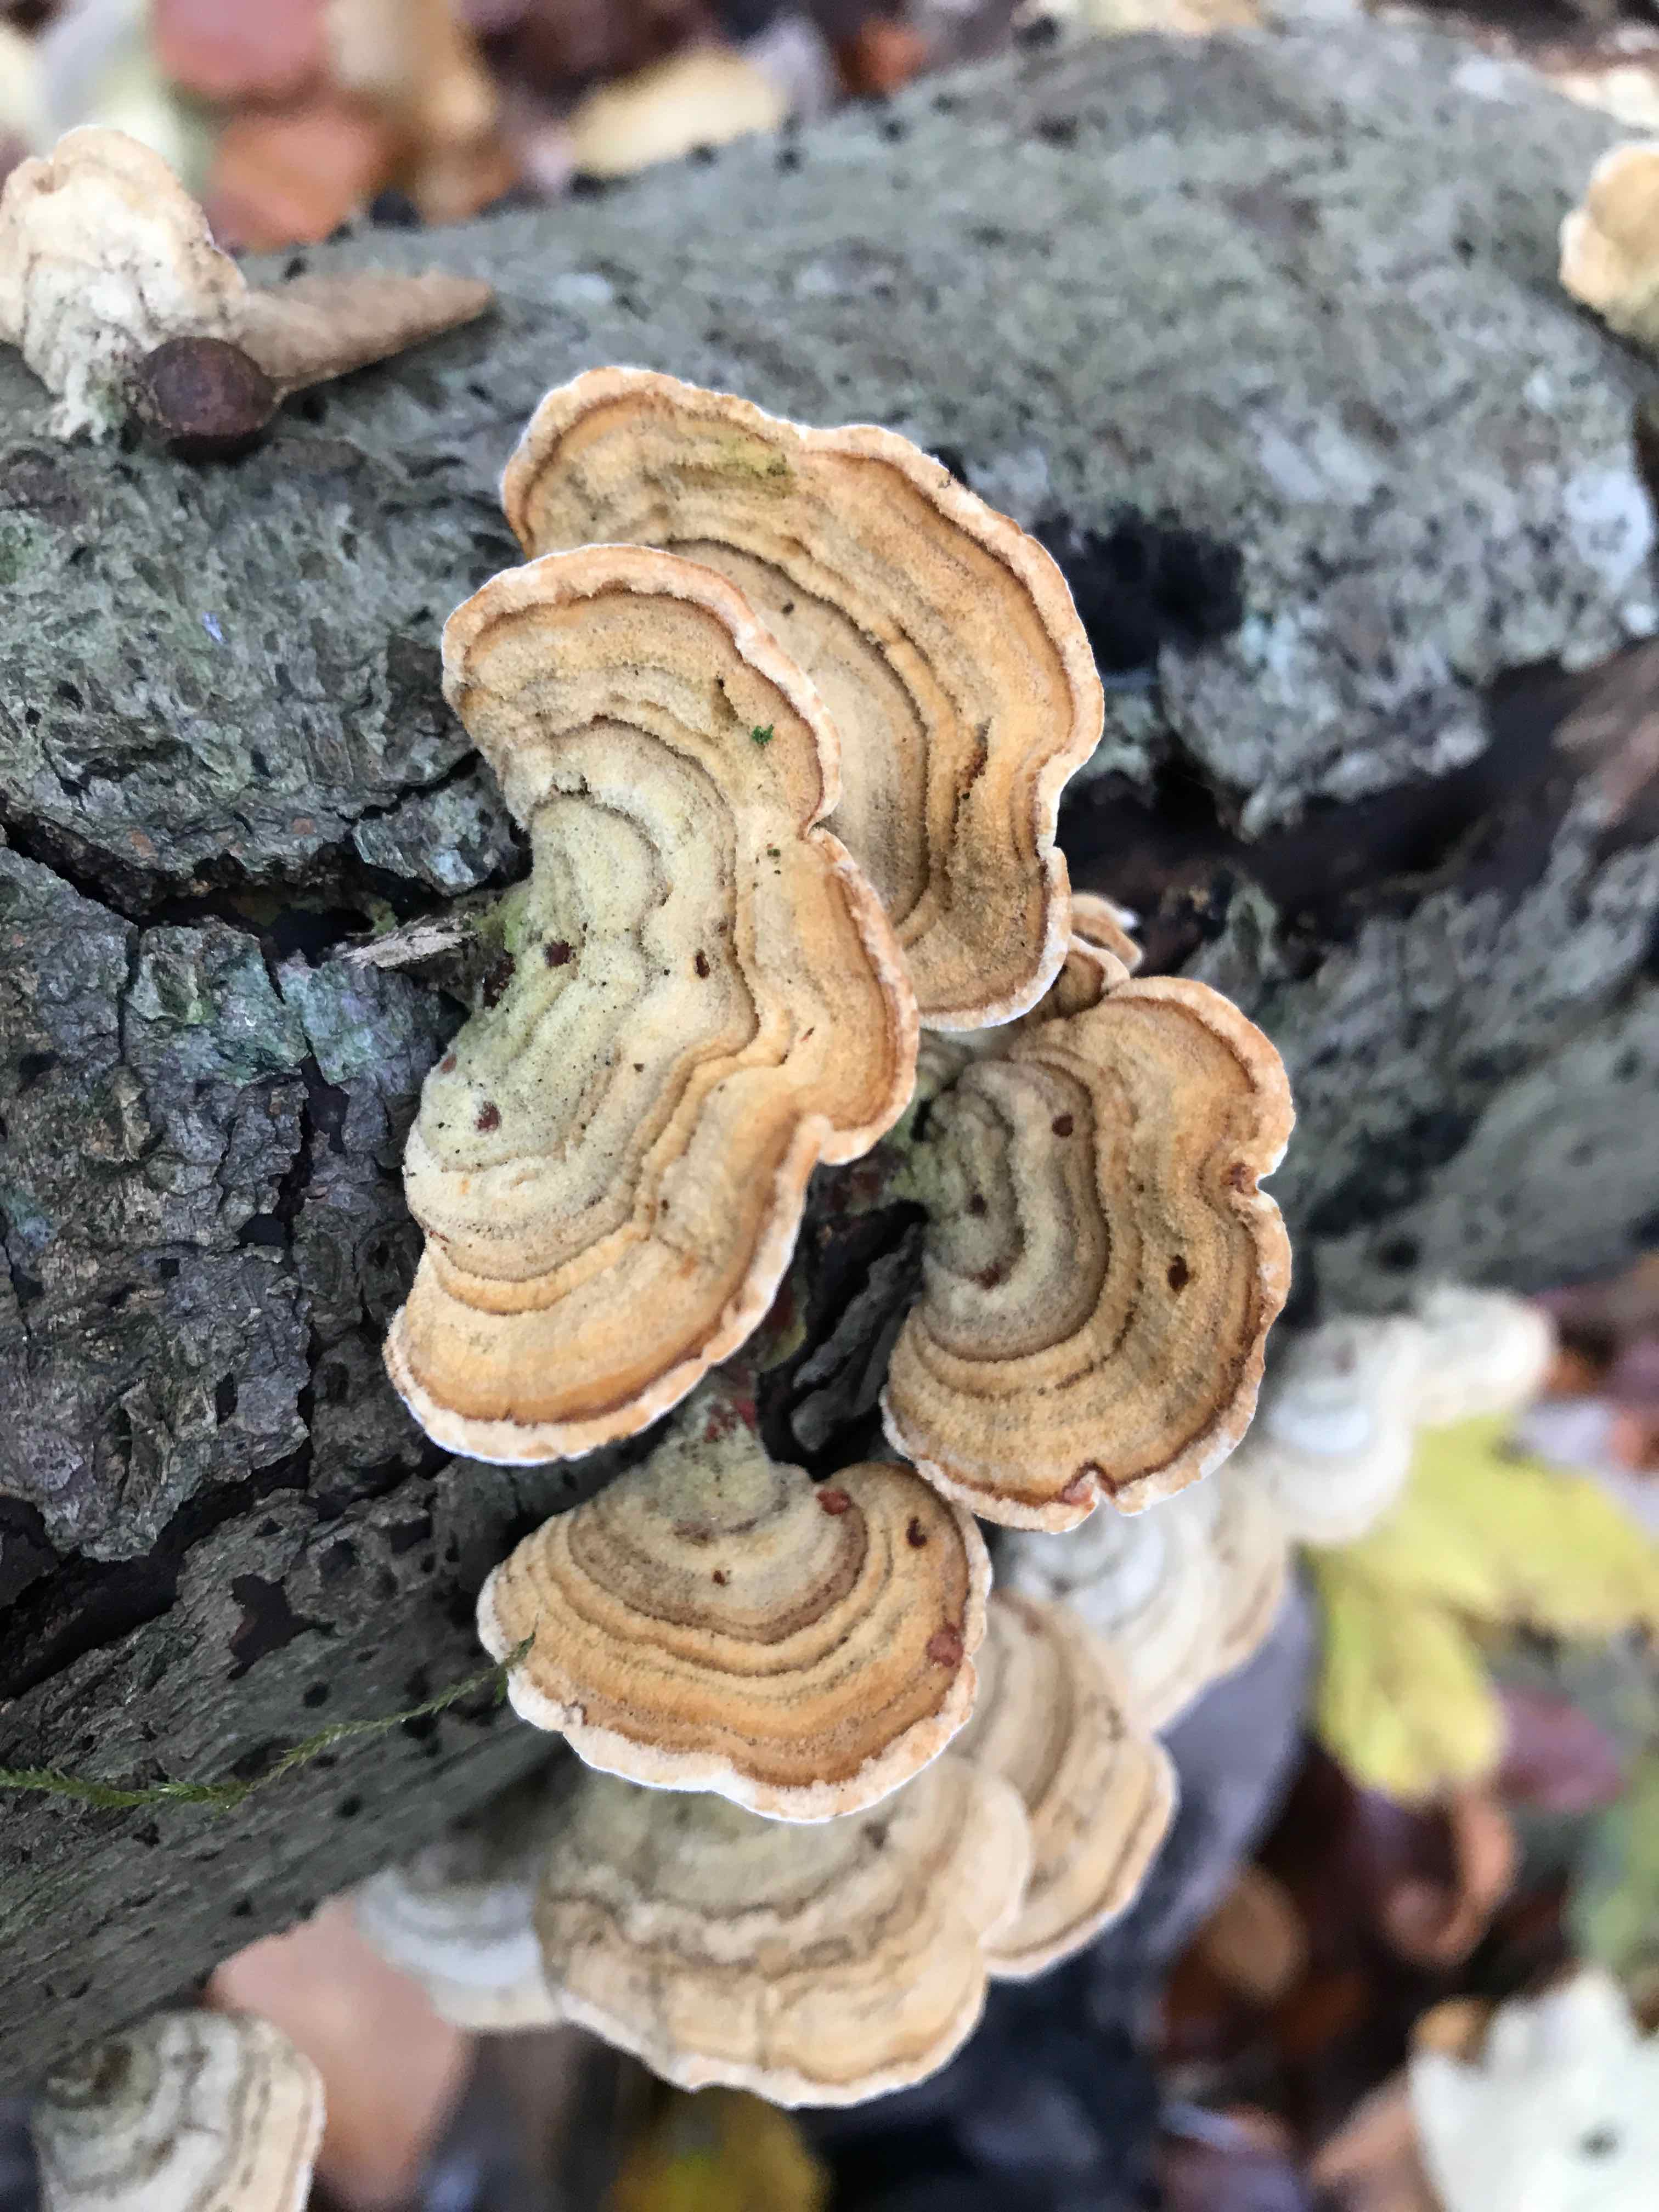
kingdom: Fungi
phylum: Basidiomycota
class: Agaricomycetes
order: Russulales
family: Stereaceae
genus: Stereum
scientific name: Stereum hirsutum
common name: håret lædersvamp
